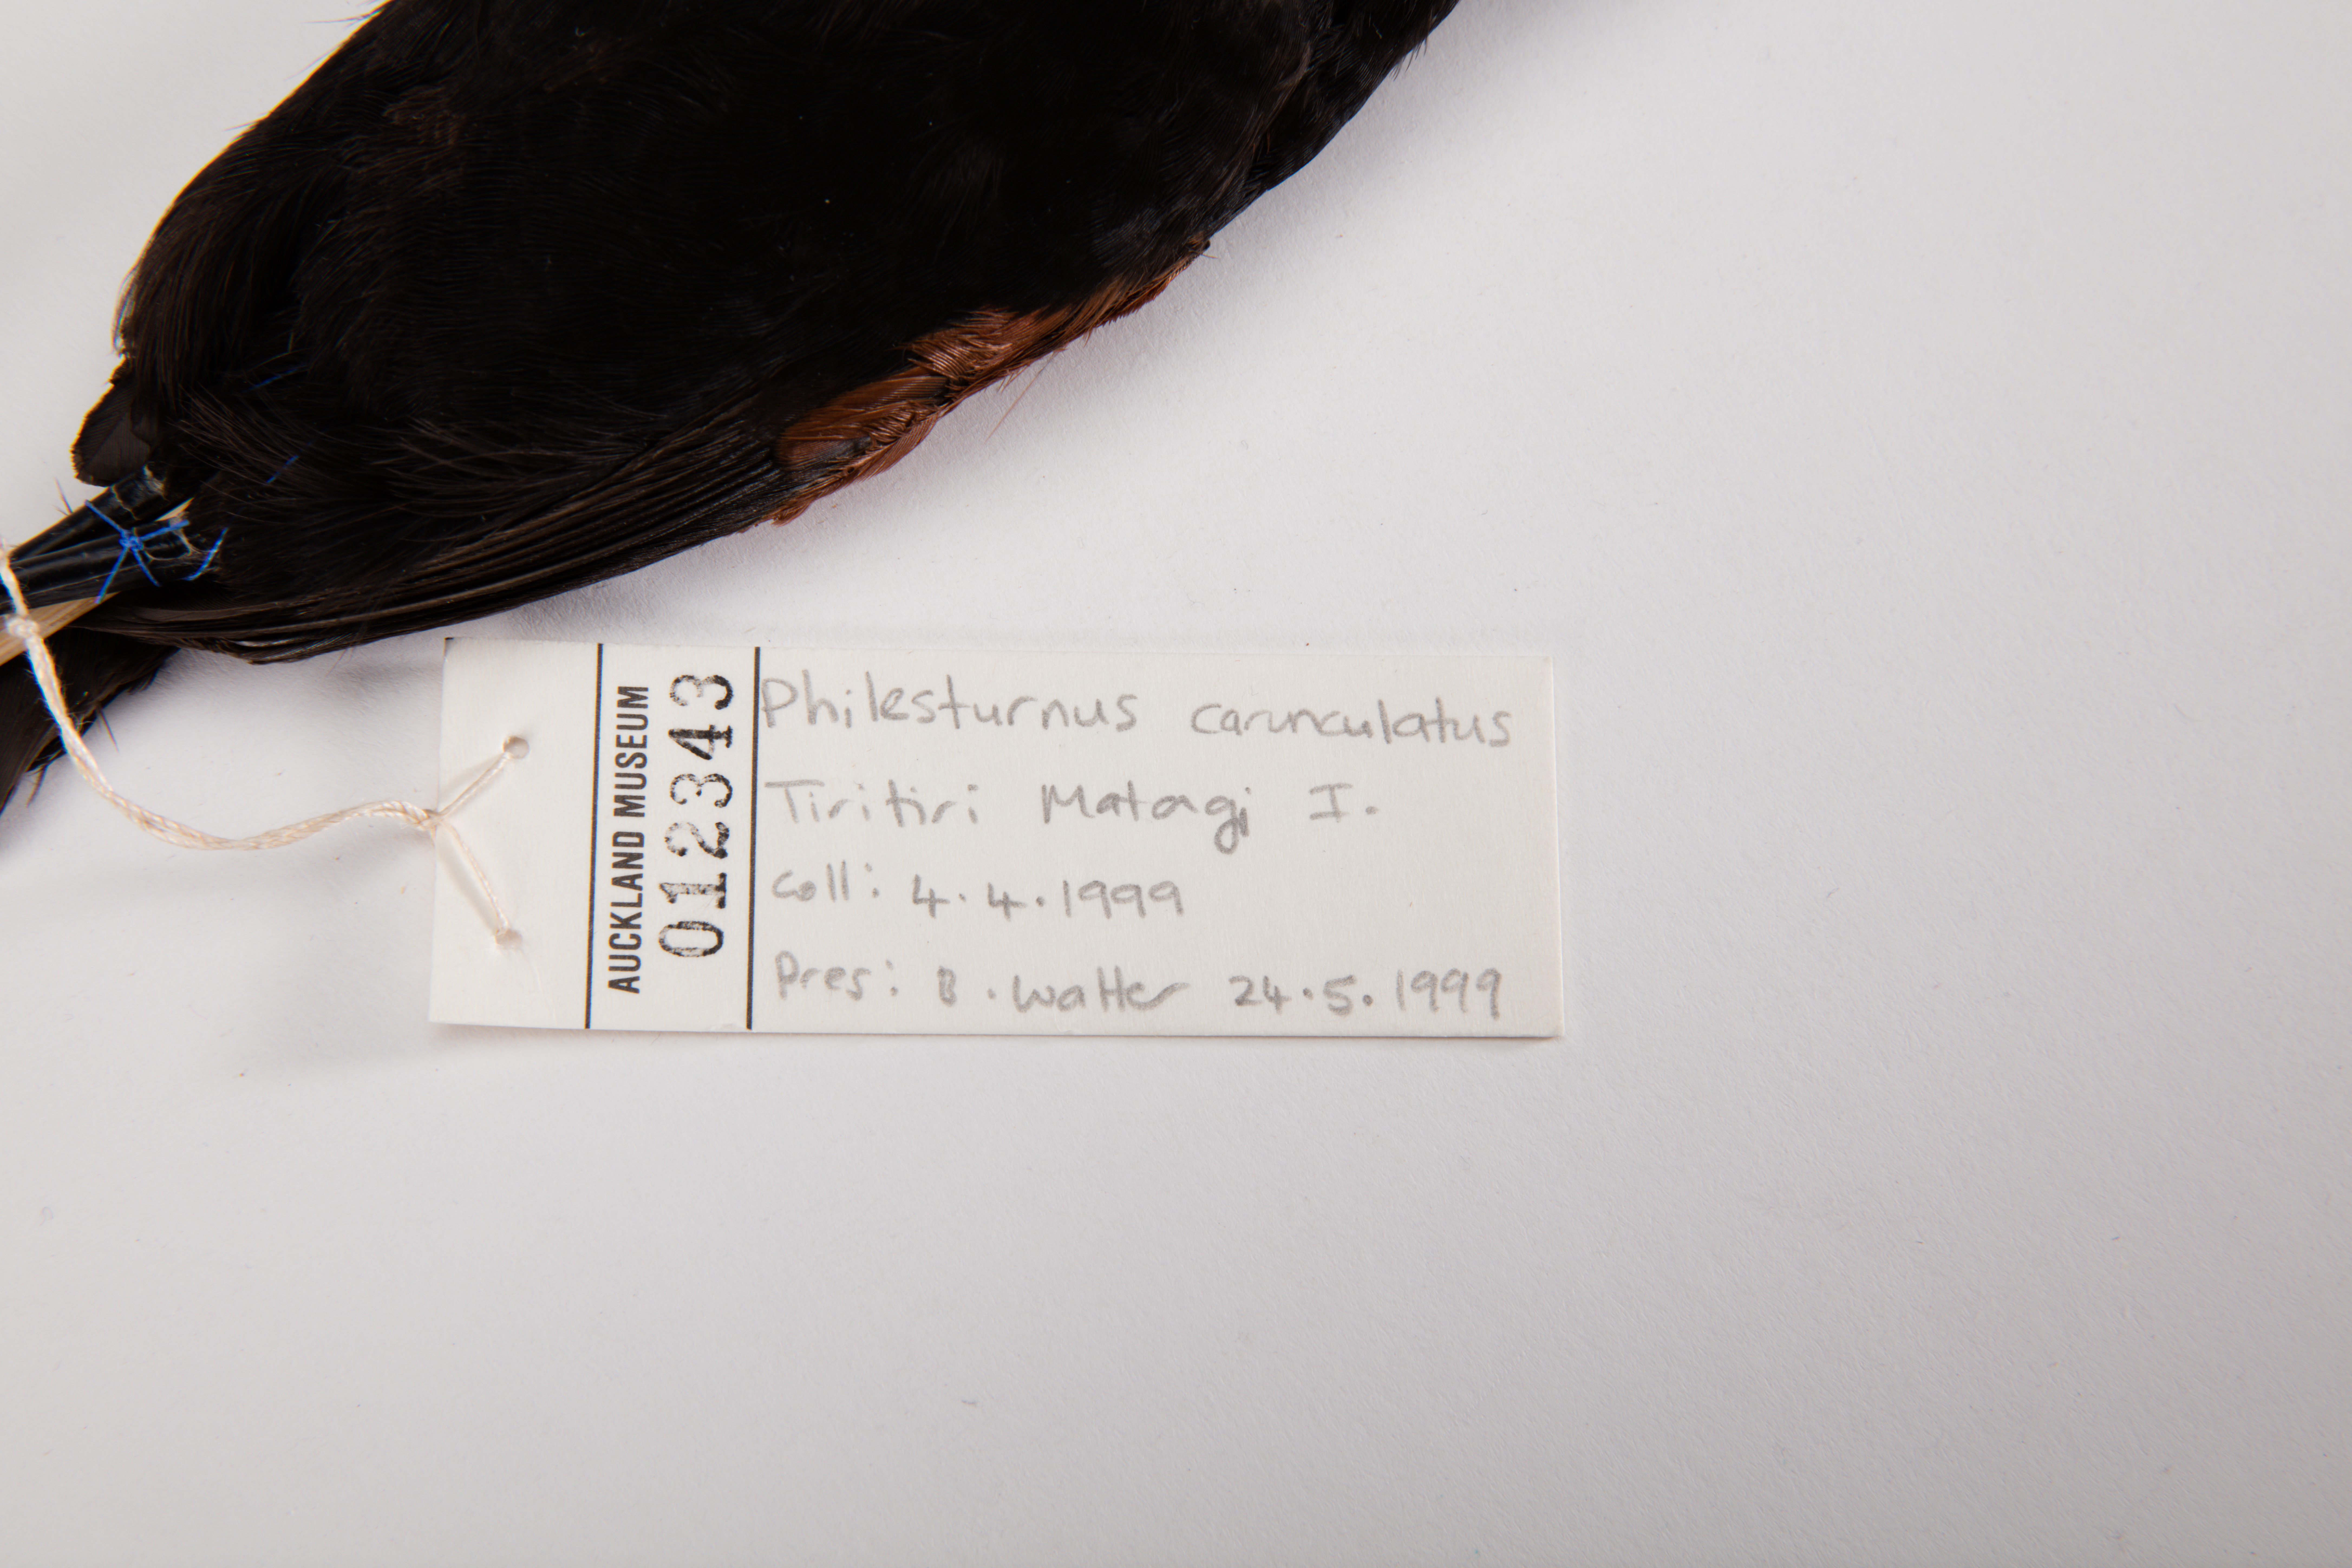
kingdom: Animalia
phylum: Chordata
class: Aves
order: Passeriformes
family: Callaeatidae
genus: Philesturnus
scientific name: Philesturnus carunculatus
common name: South island saddleback
